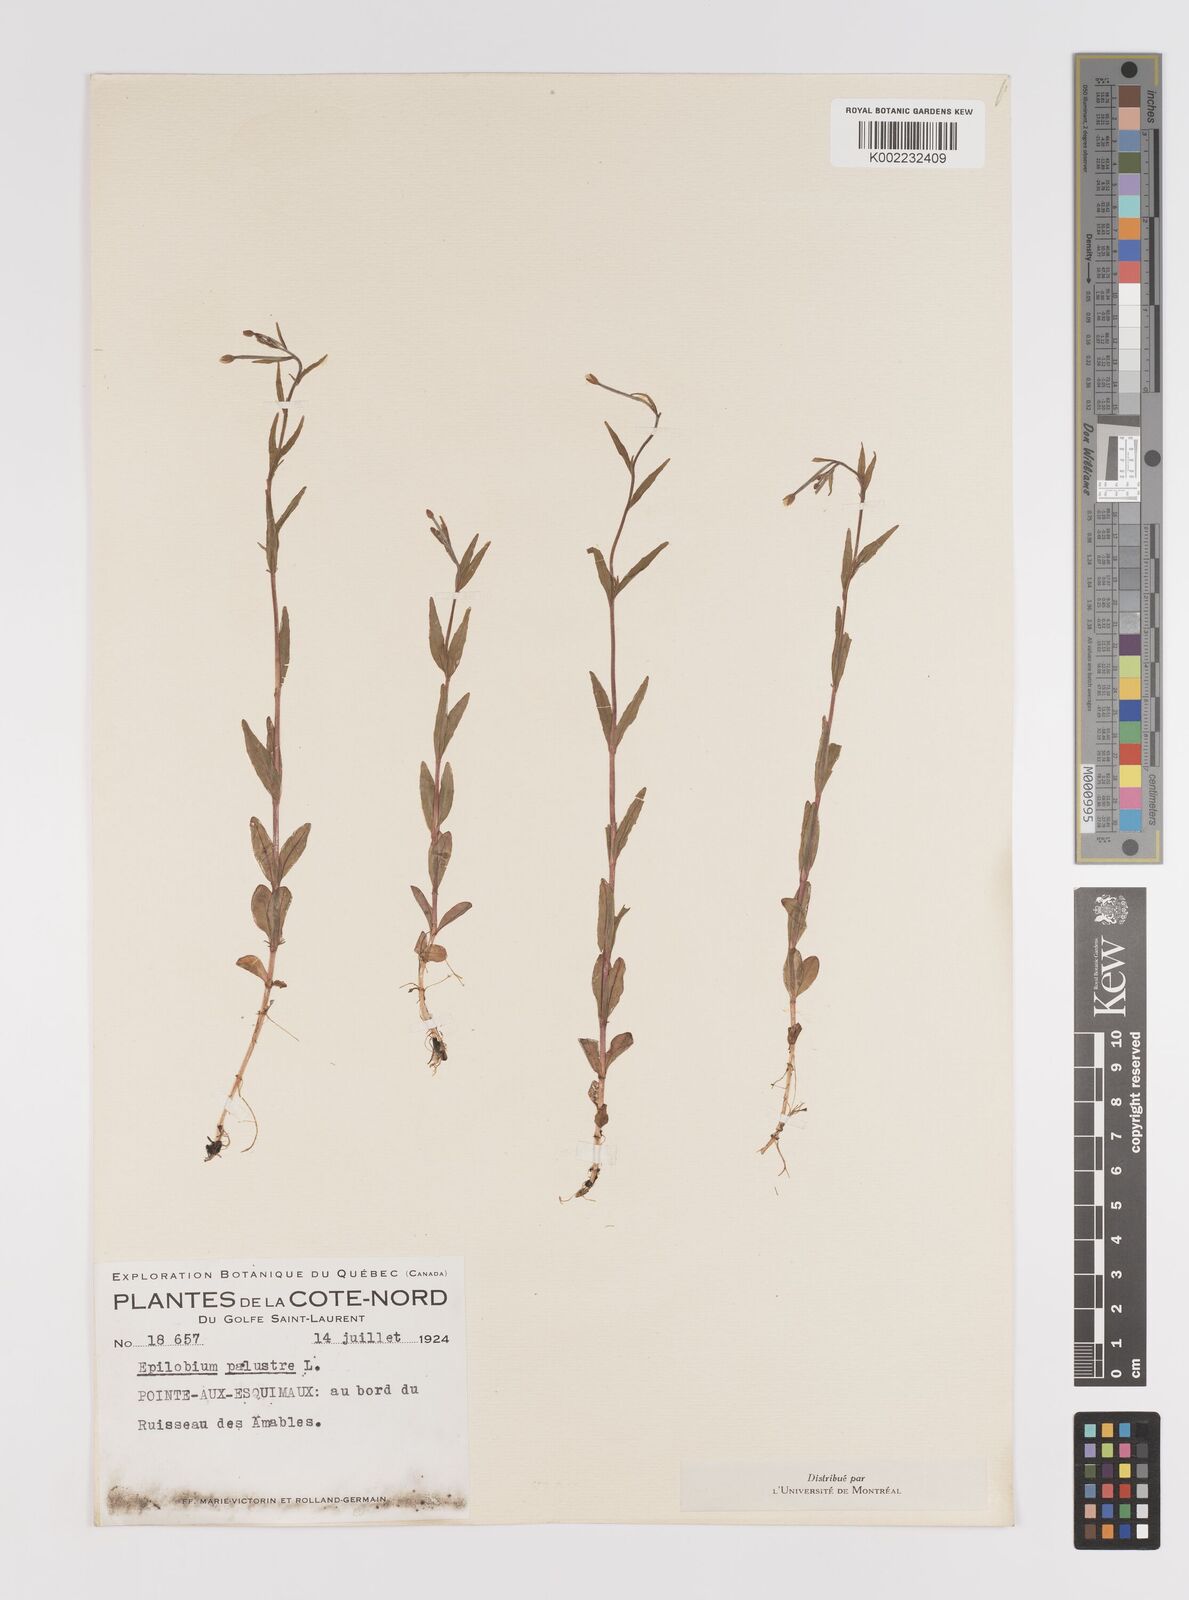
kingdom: Plantae
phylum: Tracheophyta
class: Magnoliopsida
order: Myrtales
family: Onagraceae
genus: Epilobium
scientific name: Epilobium palustre
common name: Marsh willowherb
